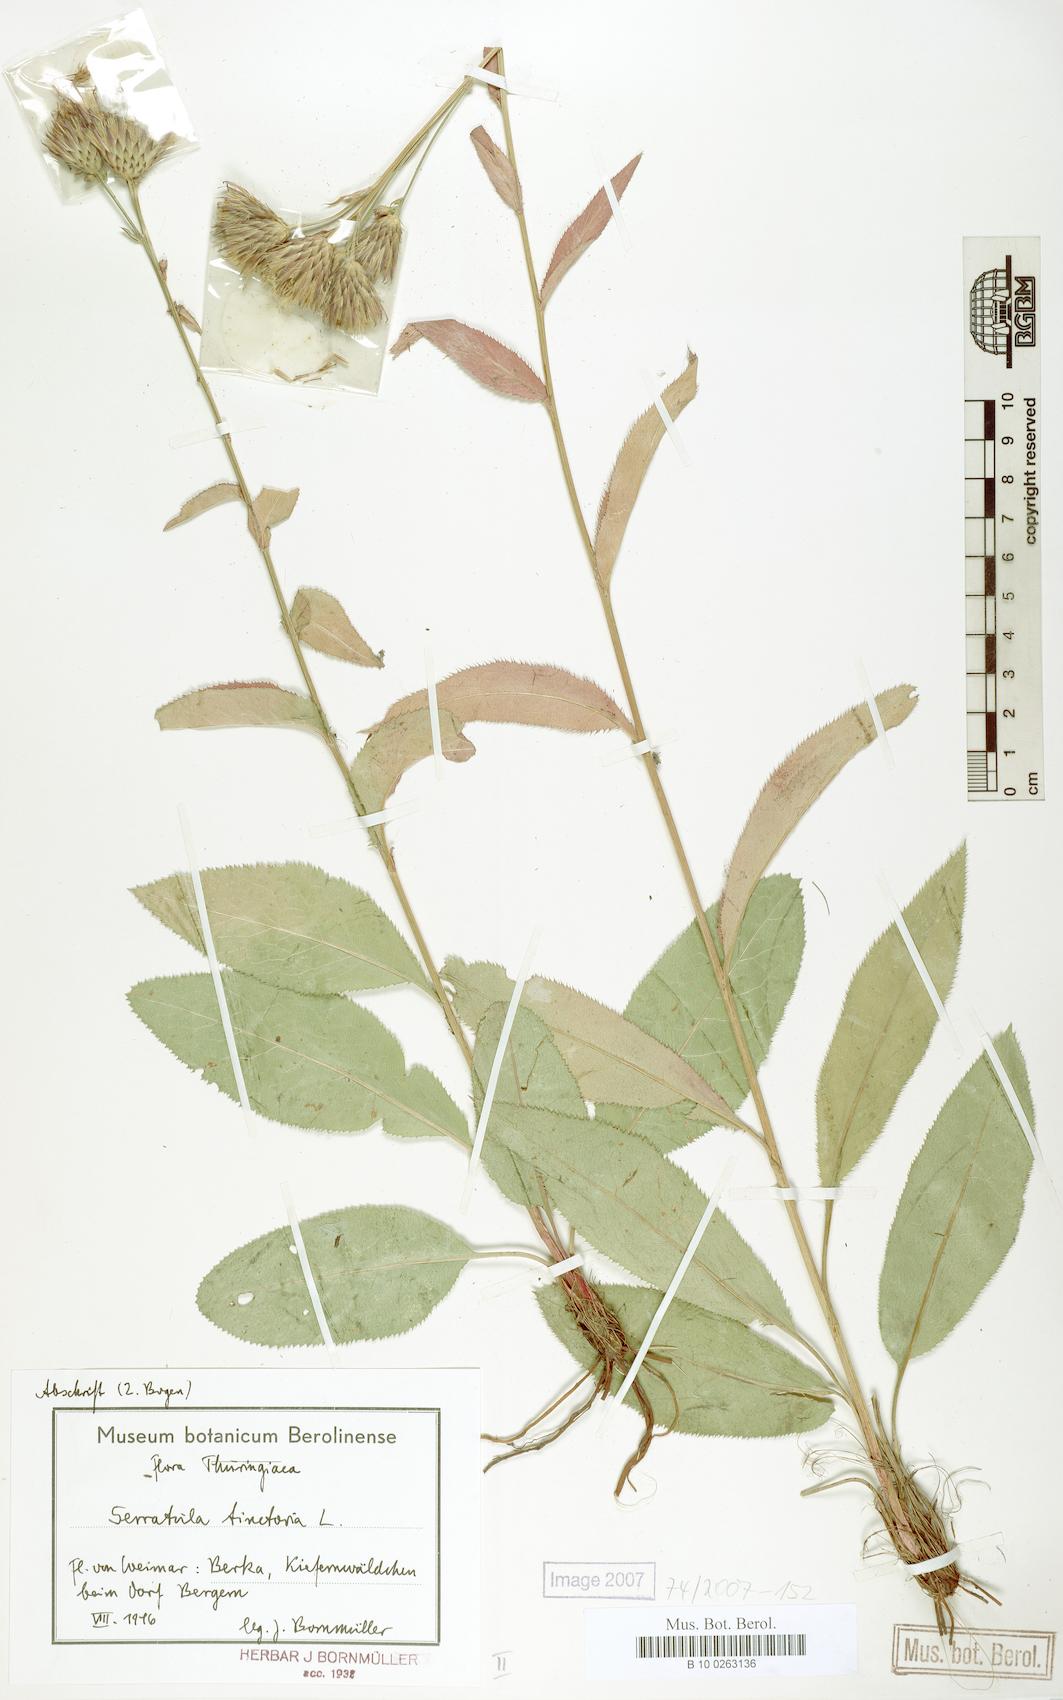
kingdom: Plantae
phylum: Tracheophyta
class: Magnoliopsida
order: Asterales
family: Asteraceae
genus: Serratula
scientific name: Serratula tinctoria
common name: Saw-wort
